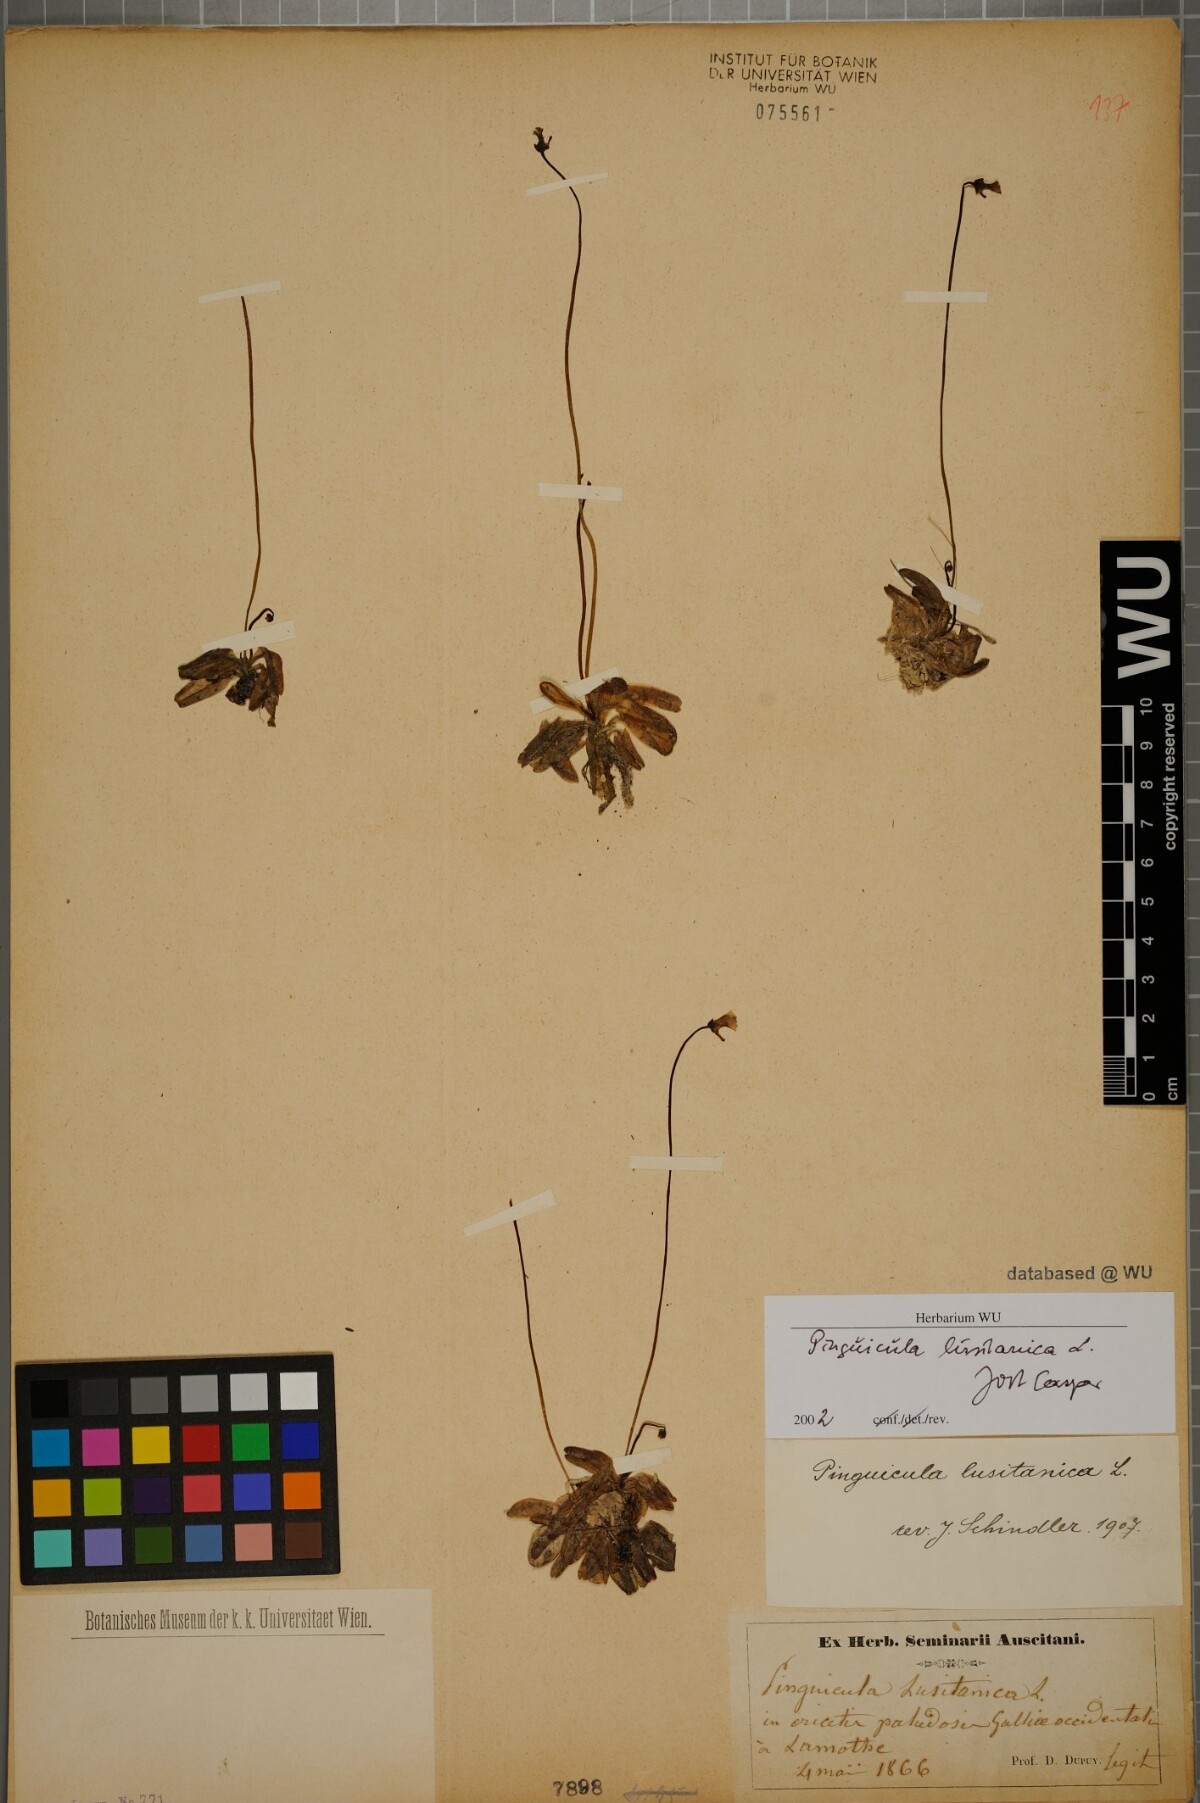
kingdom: Plantae
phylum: Tracheophyta
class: Magnoliopsida
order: Lamiales
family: Lentibulariaceae
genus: Pinguicula
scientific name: Pinguicula lusitanica
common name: Pale butterwort
